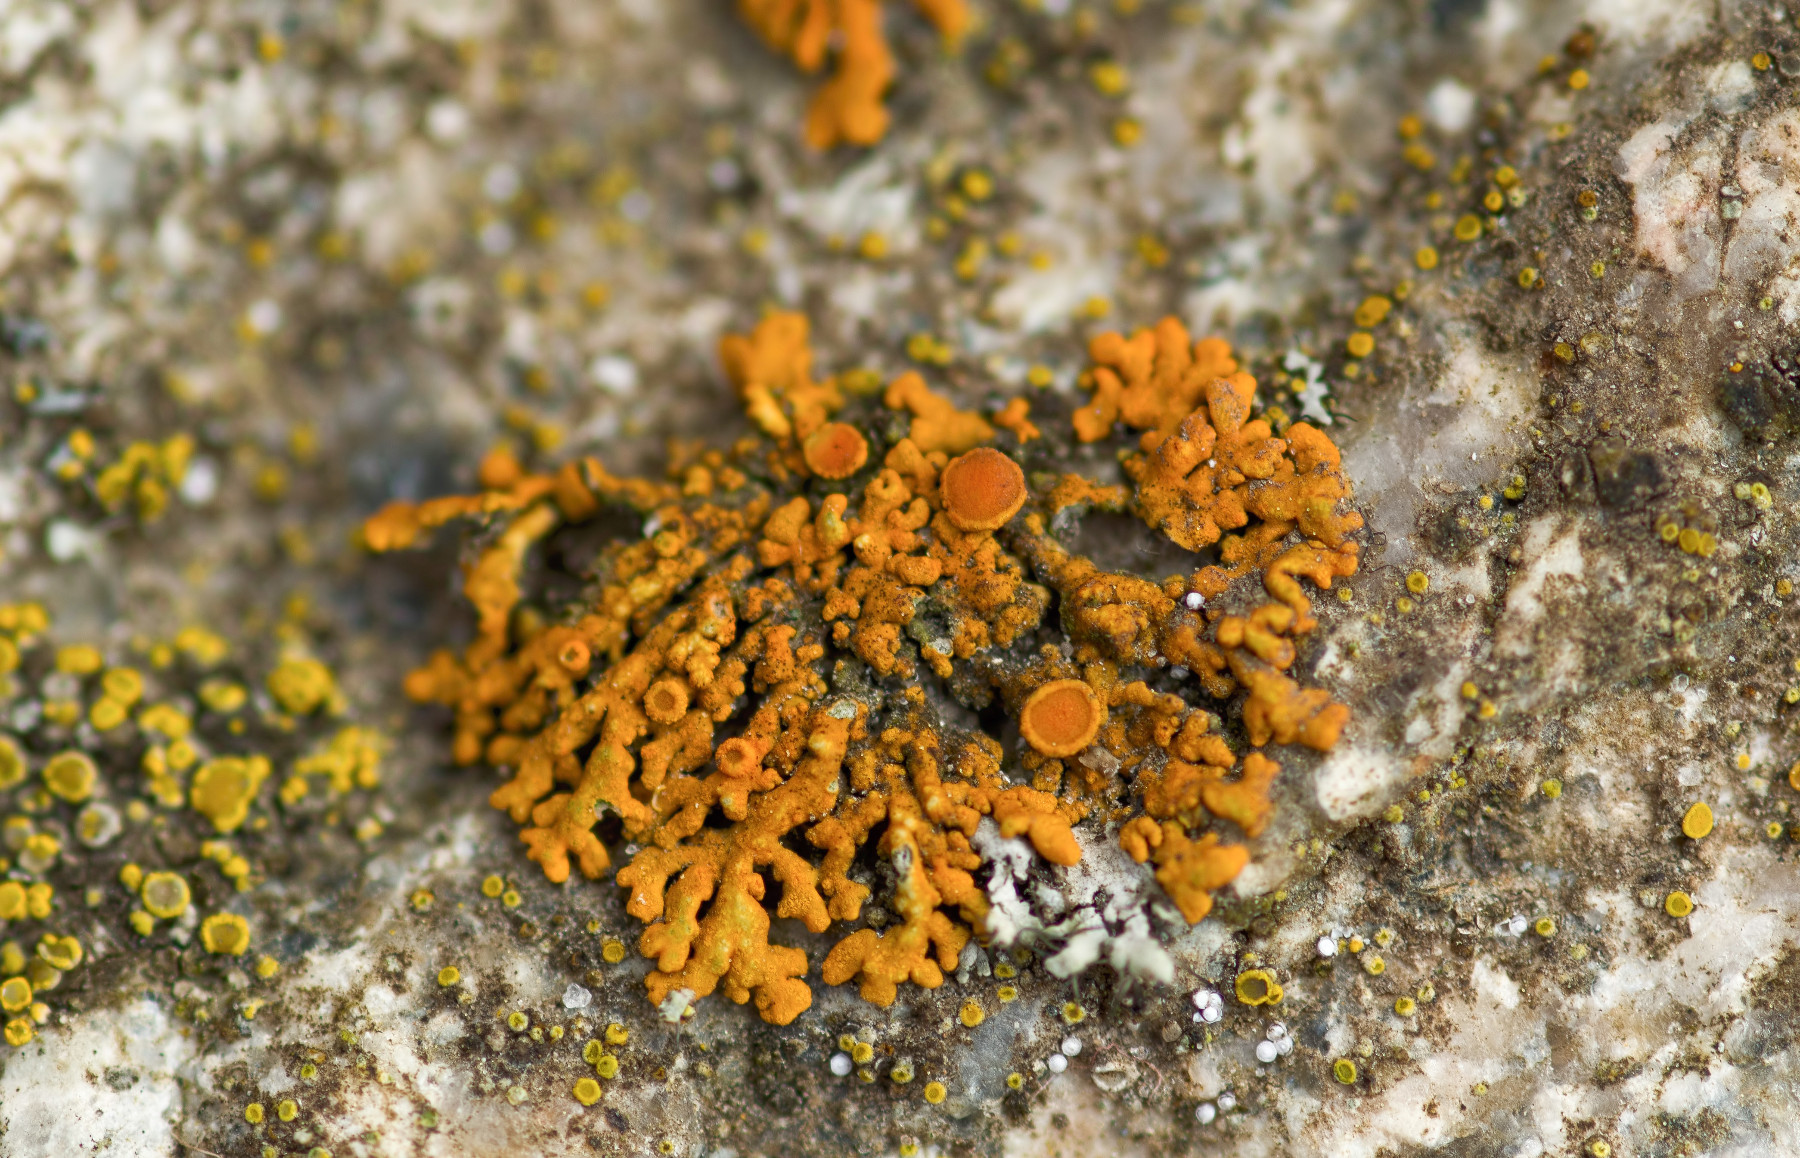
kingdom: Fungi
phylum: Ascomycota
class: Lecanoromycetes
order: Teloschistales
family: Teloschistaceae
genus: Xanthoria
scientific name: Xanthoria elegans
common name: fjeld-væggelav
